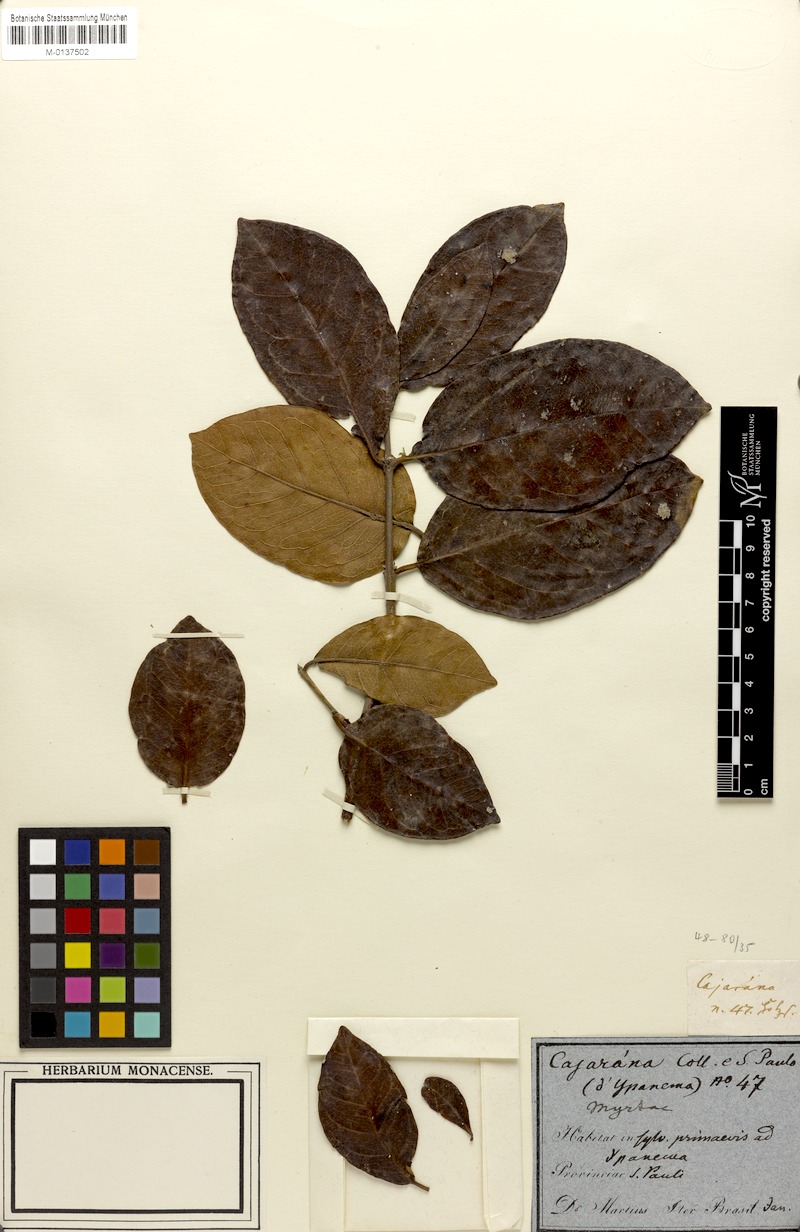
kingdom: Plantae
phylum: Tracheophyta
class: Magnoliopsida
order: Sapindales
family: Meliaceae
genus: Cabralea
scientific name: Cabralea canjerana
